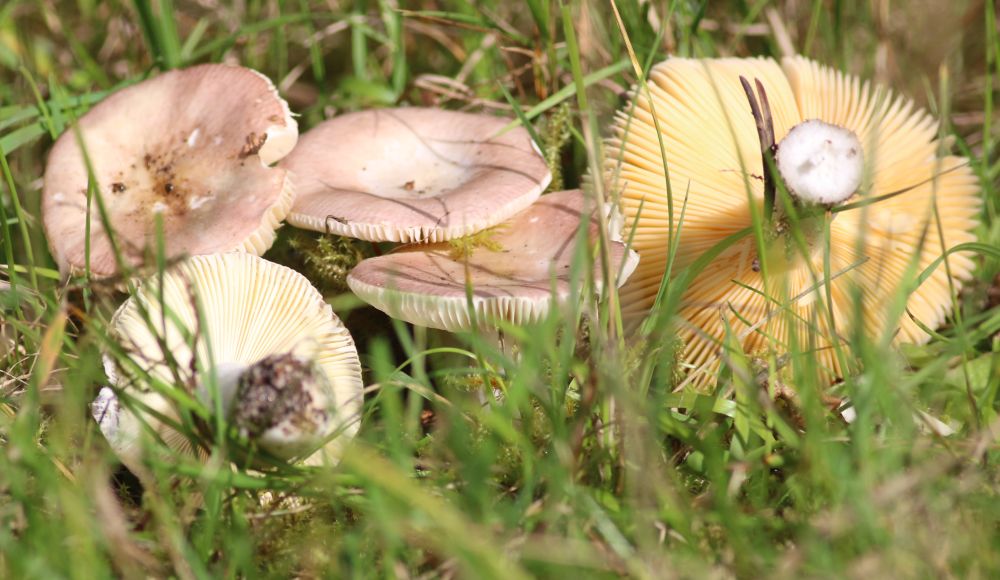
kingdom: Fungi
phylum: Basidiomycota
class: Agaricomycetes
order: Russulales
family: Russulaceae
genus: Russula
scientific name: Russula
